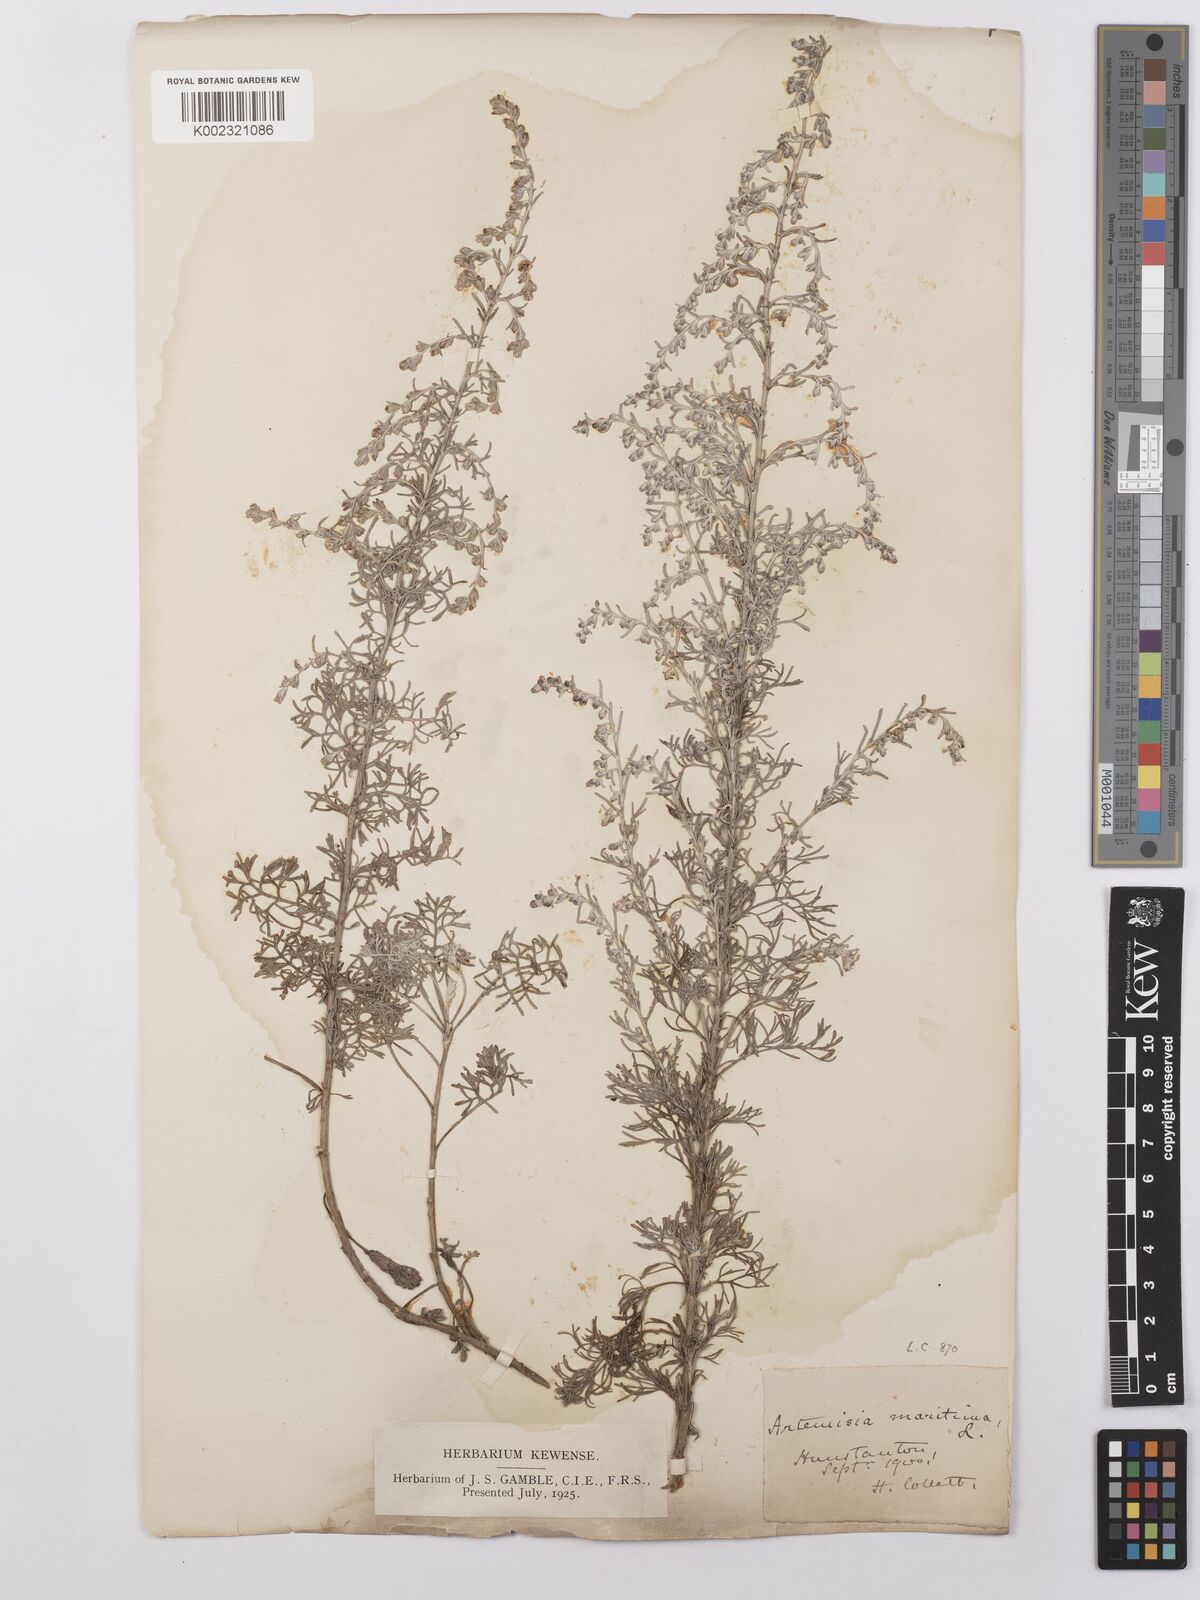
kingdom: Plantae
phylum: Tracheophyta
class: Magnoliopsida
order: Asterales
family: Asteraceae
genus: Artemisia
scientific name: Artemisia maritima
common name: Wormseed
